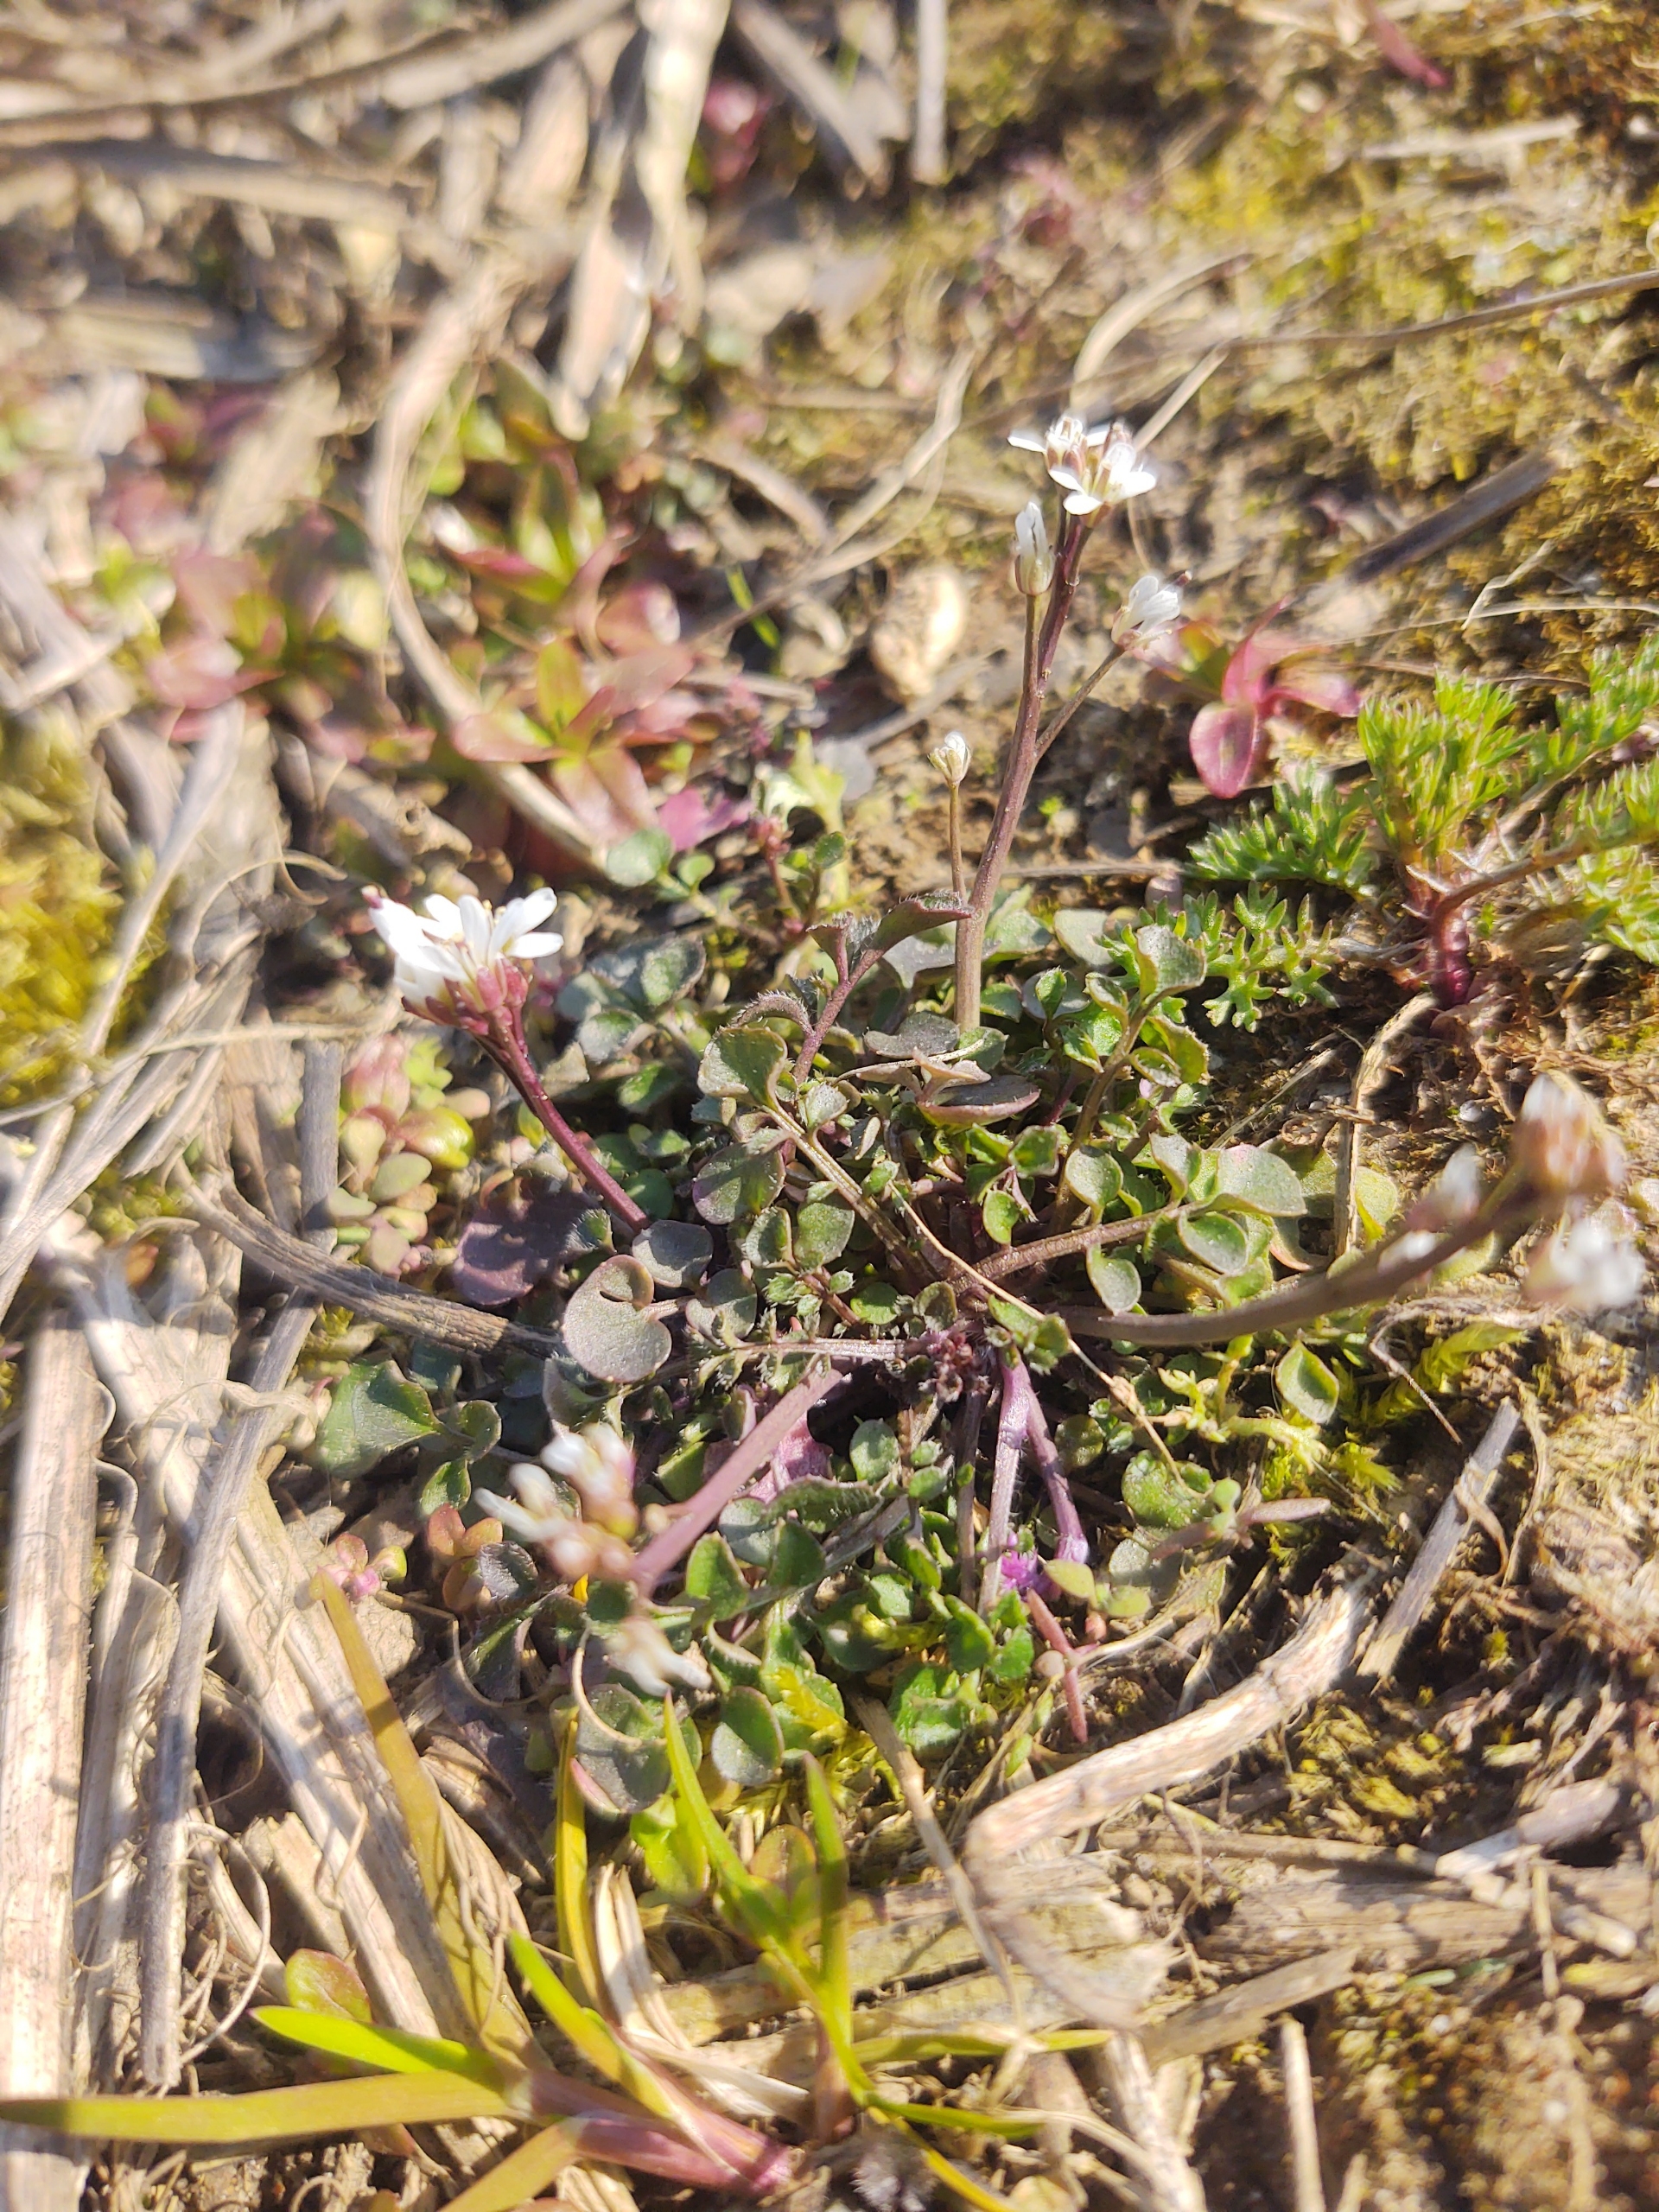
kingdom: Plantae
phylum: Tracheophyta
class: Magnoliopsida
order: Brassicales
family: Brassicaceae
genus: Cardamine
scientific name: Cardamine hirsuta
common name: Roset-springklap
